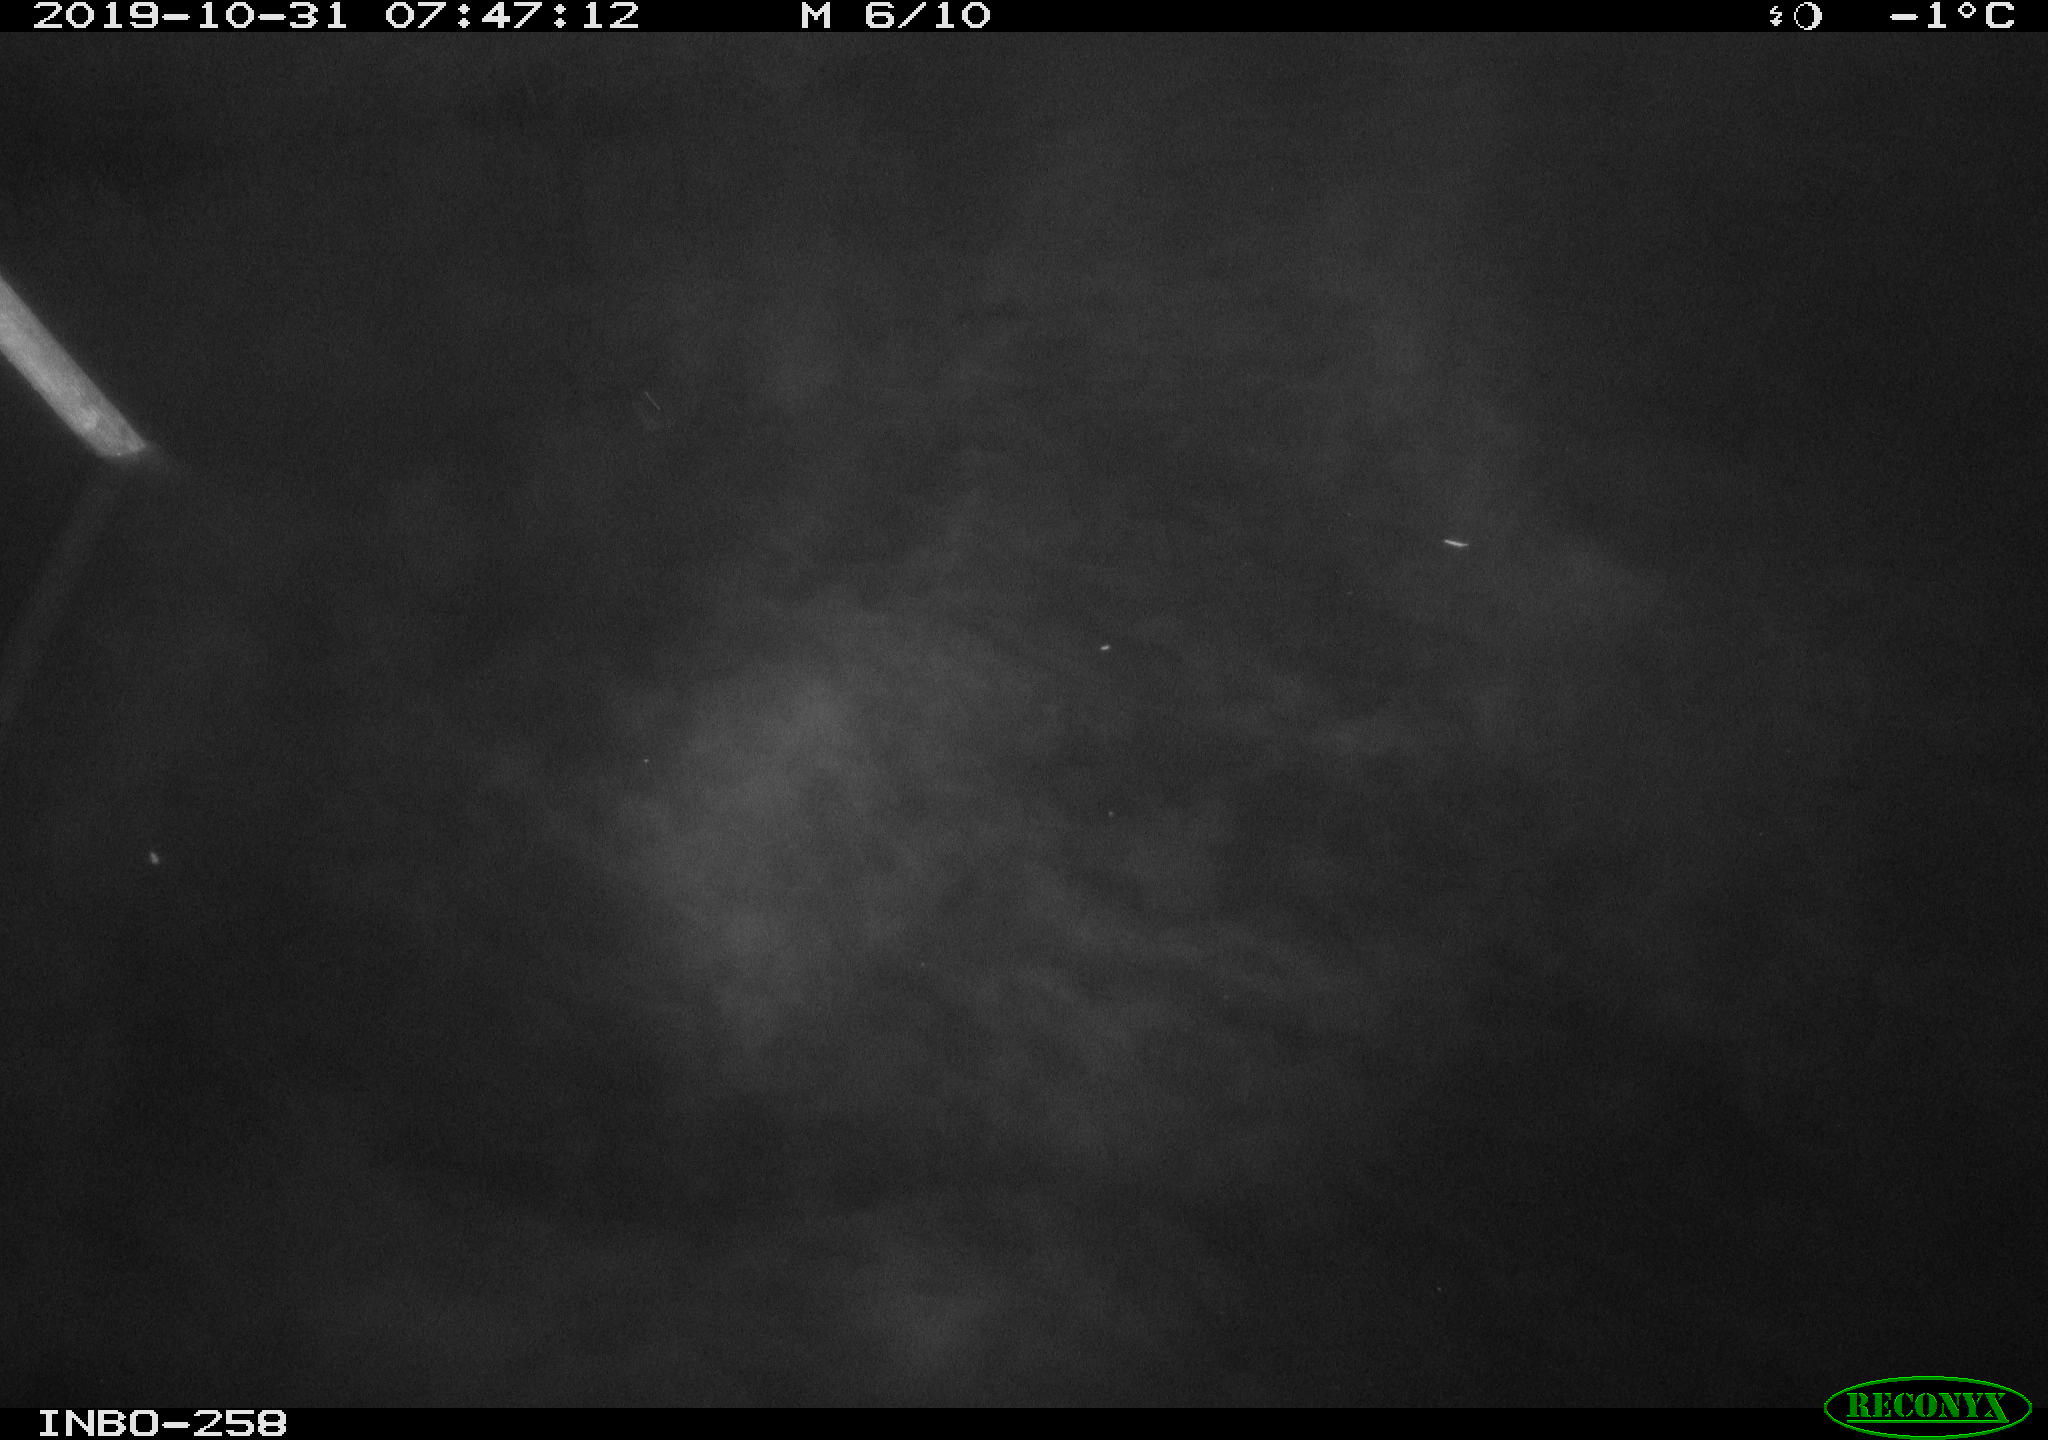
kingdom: Animalia
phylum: Chordata
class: Mammalia
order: Rodentia
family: Muridae
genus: Rattus
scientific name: Rattus norvegicus
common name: Brown rat
